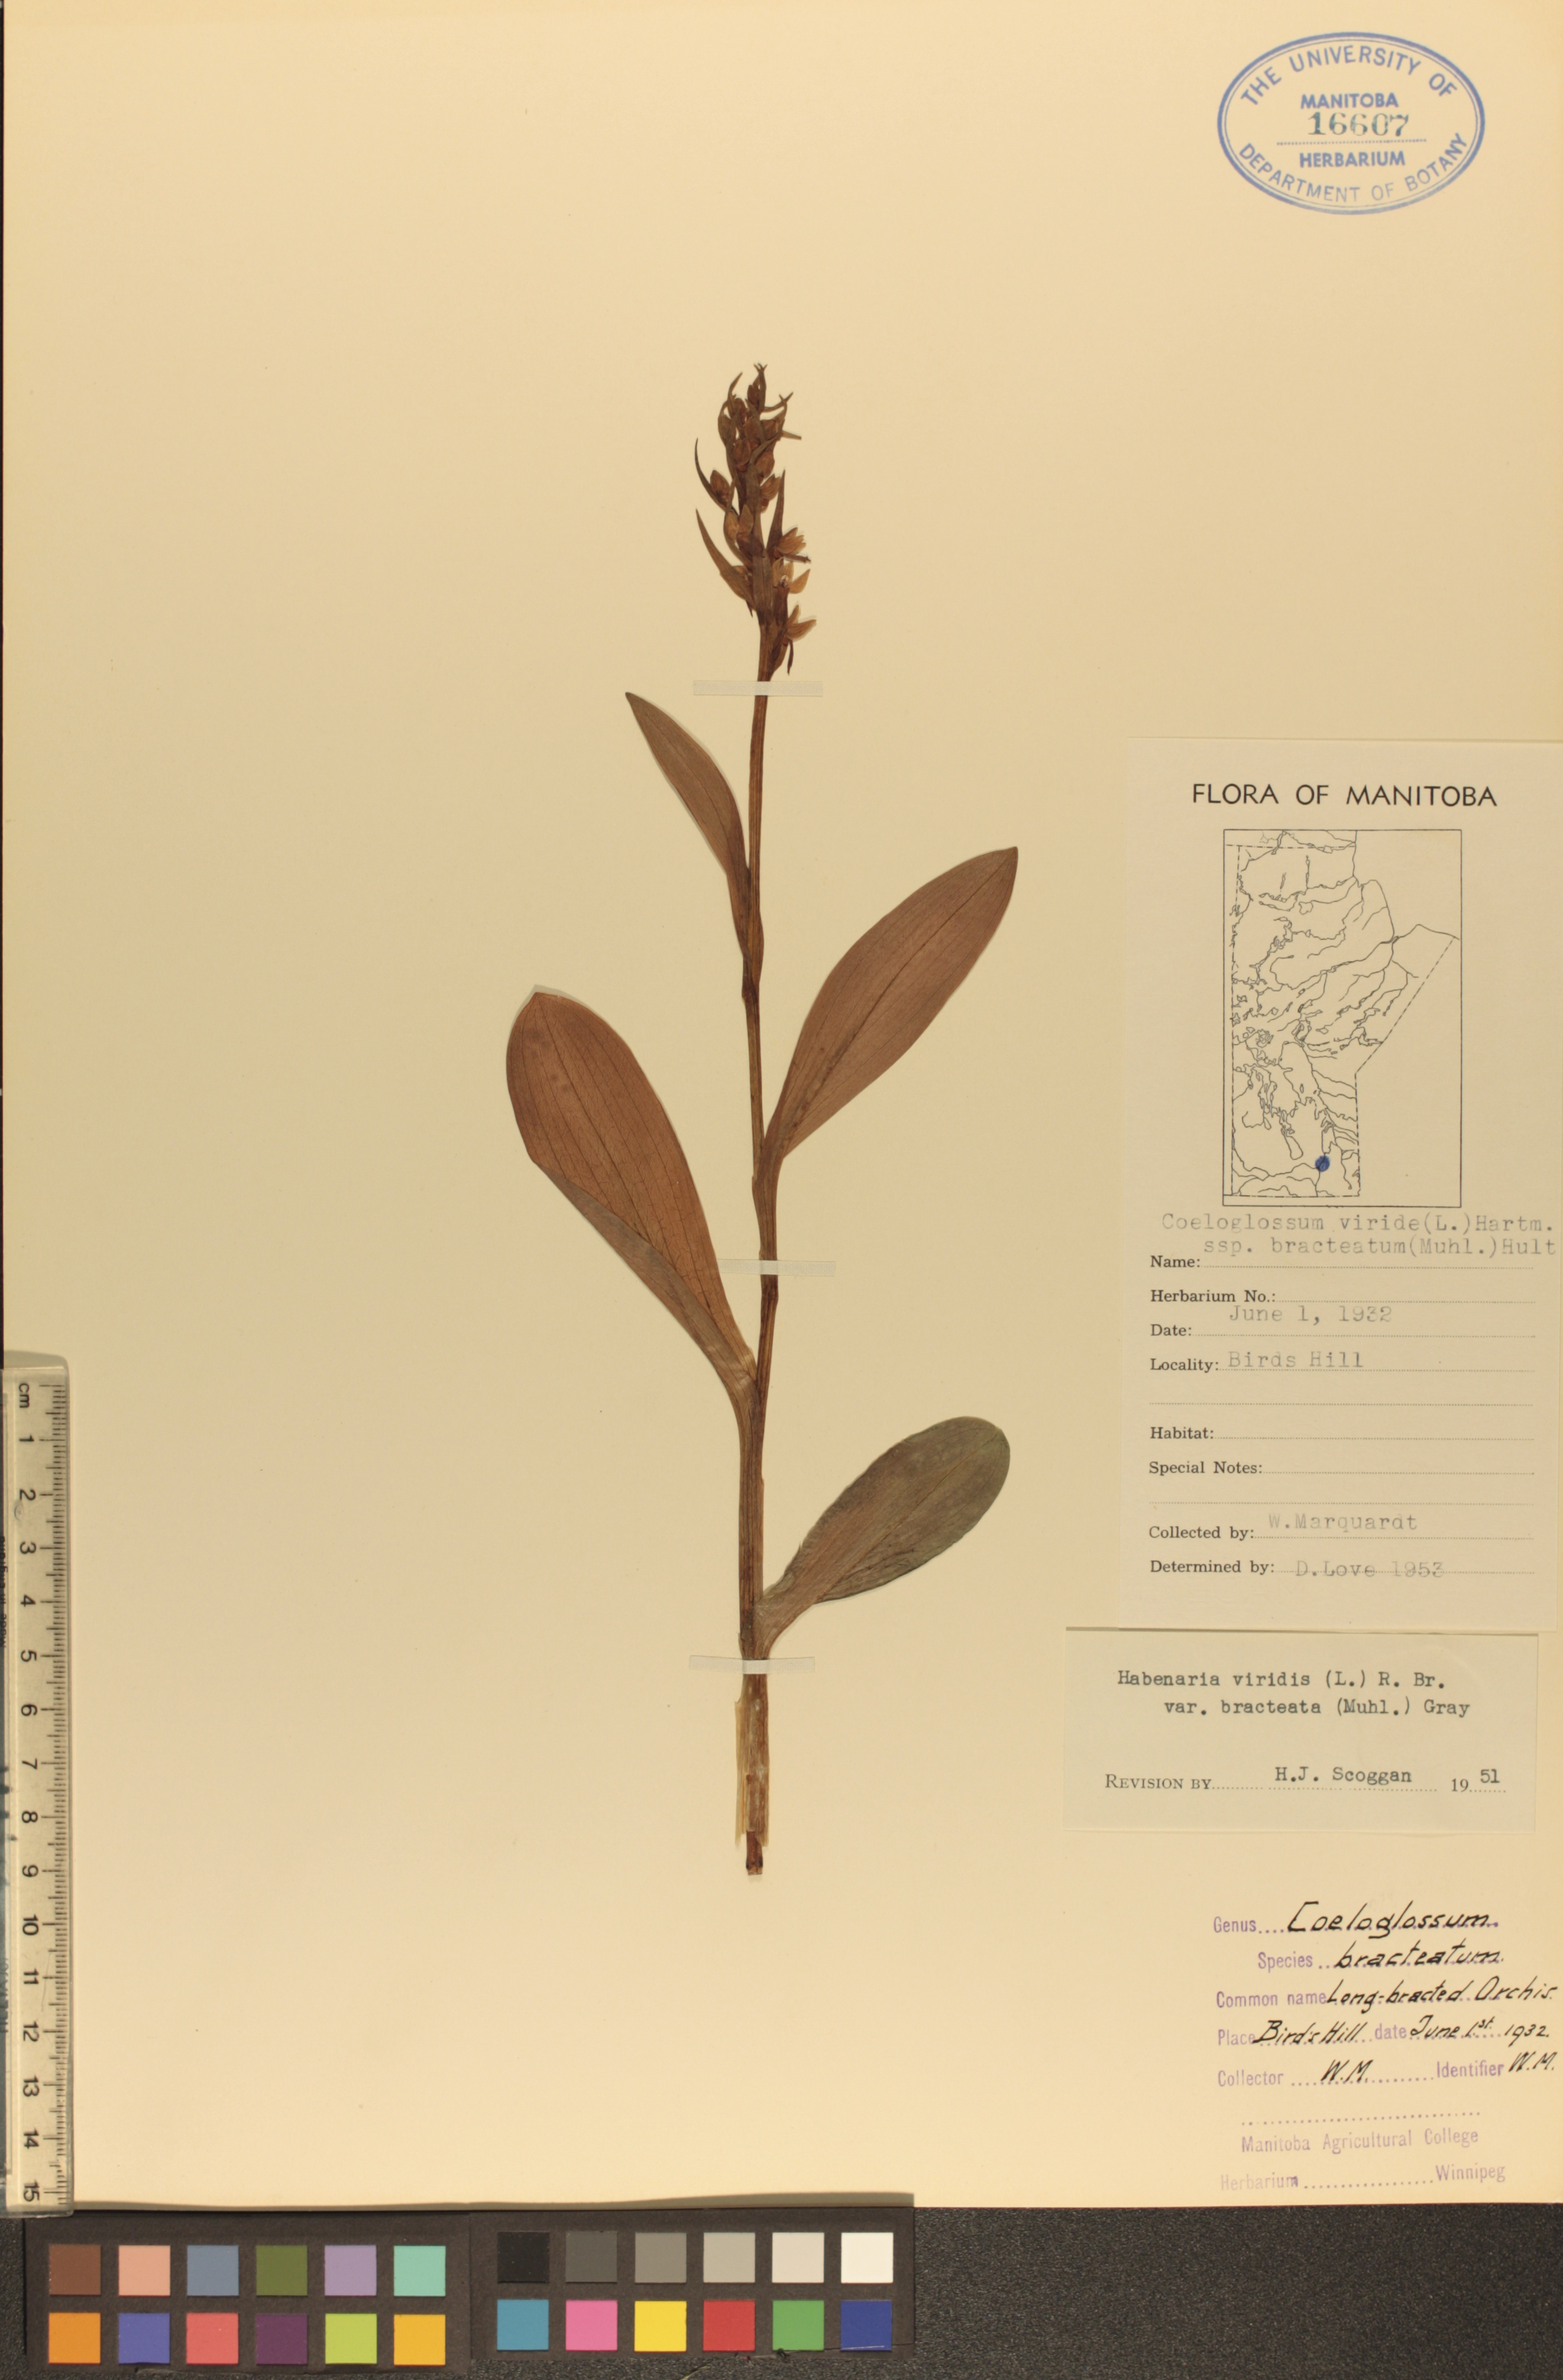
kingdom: Plantae
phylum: Tracheophyta
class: Liliopsida
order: Asparagales
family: Orchidaceae
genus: Dactylorhiza
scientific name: Dactylorhiza viridis
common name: Longbract frog orchid
